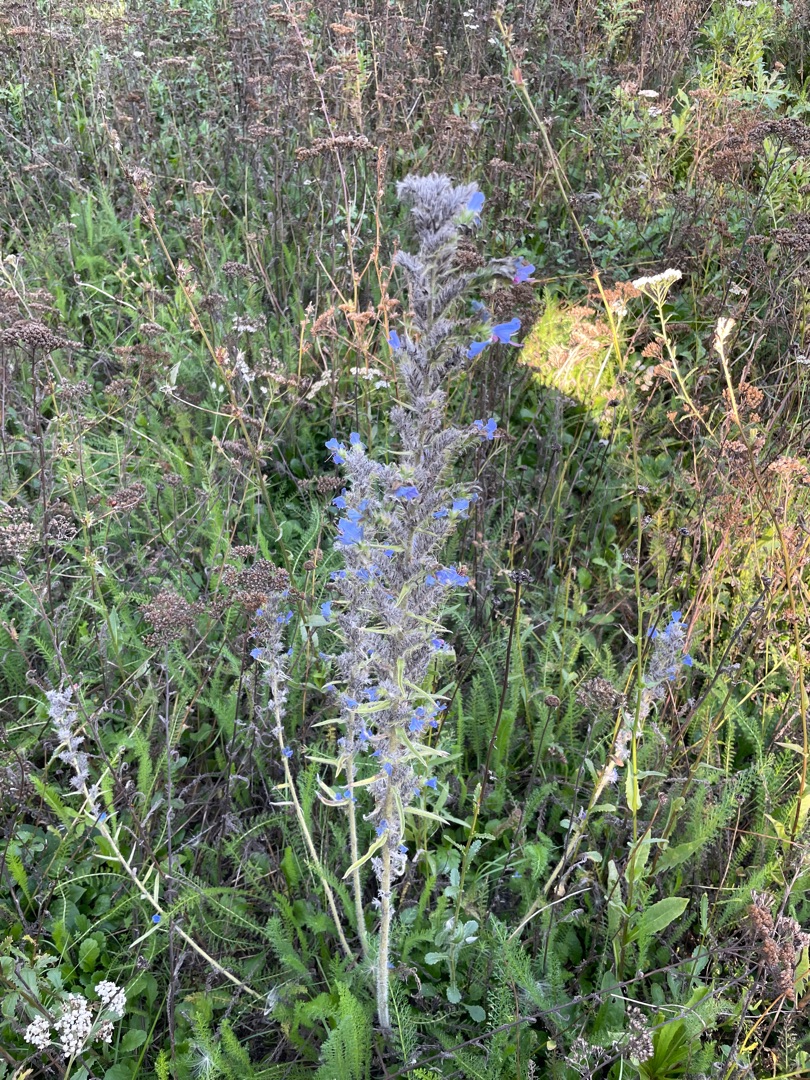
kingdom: Plantae
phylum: Tracheophyta
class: Magnoliopsida
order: Boraginales
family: Boraginaceae
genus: Echium
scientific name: Echium vulgare
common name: Slangehoved
